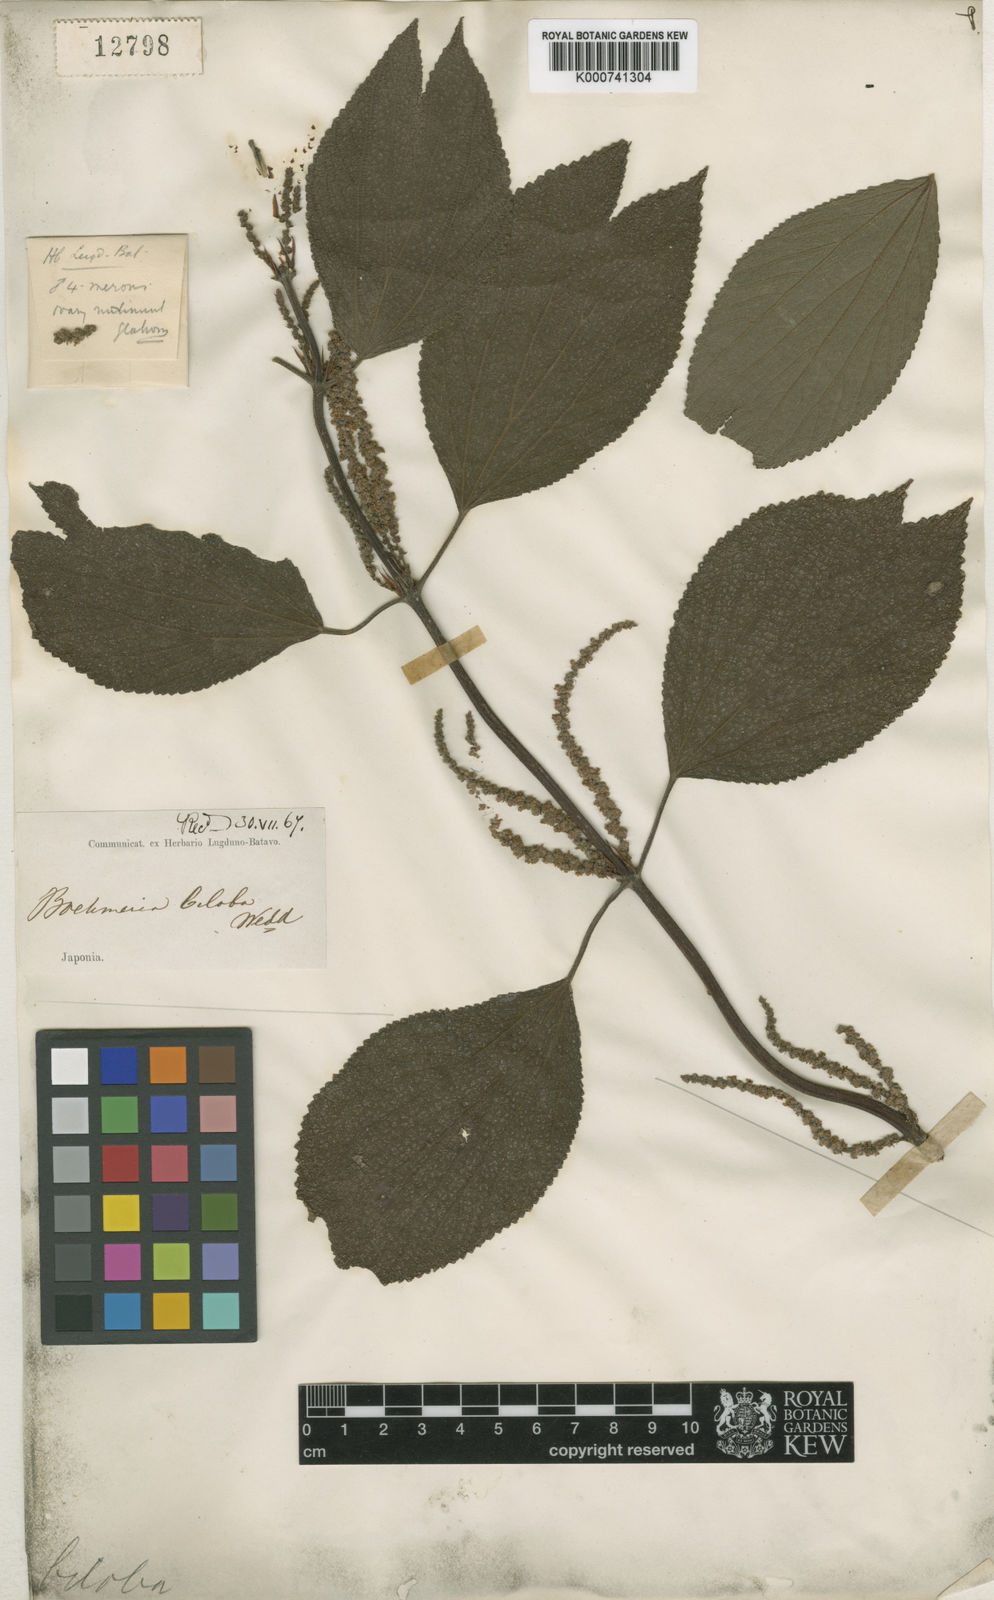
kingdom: Plantae
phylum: Tracheophyta
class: Magnoliopsida
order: Rosales
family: Urticaceae
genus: Boehmeria
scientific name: Boehmeria splitgerbera
